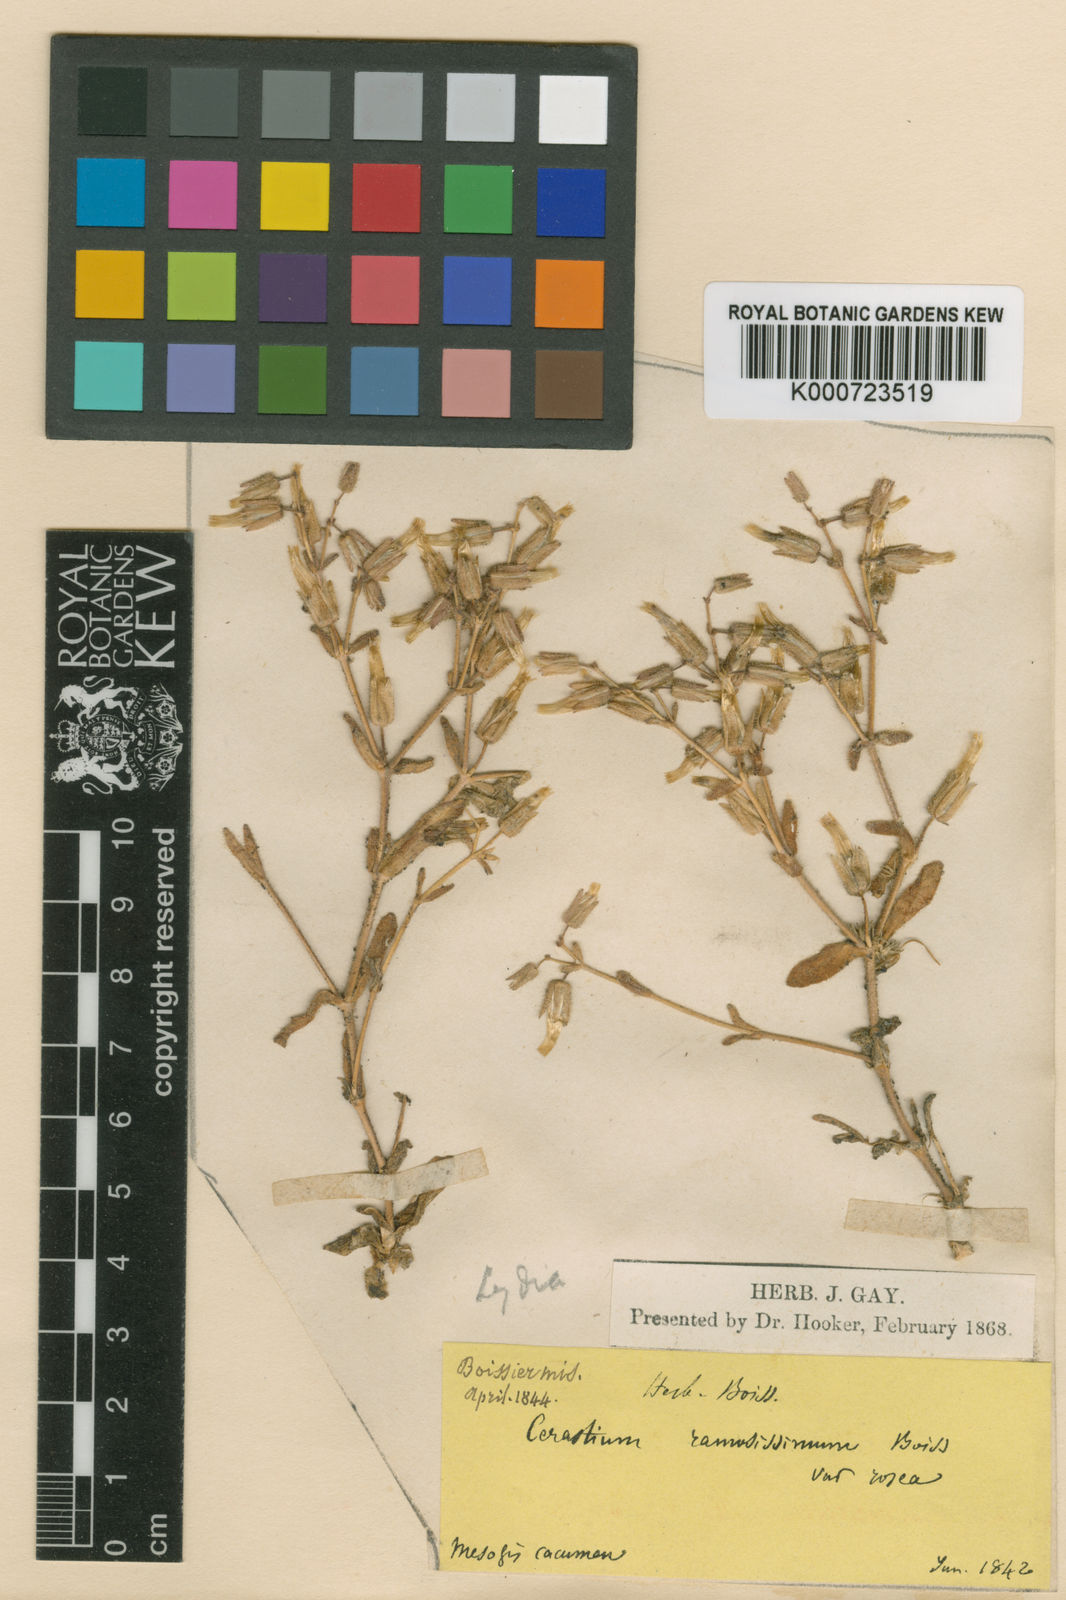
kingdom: Plantae
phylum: Tracheophyta
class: Magnoliopsida
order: Caryophyllales
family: Caryophyllaceae
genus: Cerastium
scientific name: Cerastium gracile
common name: Slender chickweed
